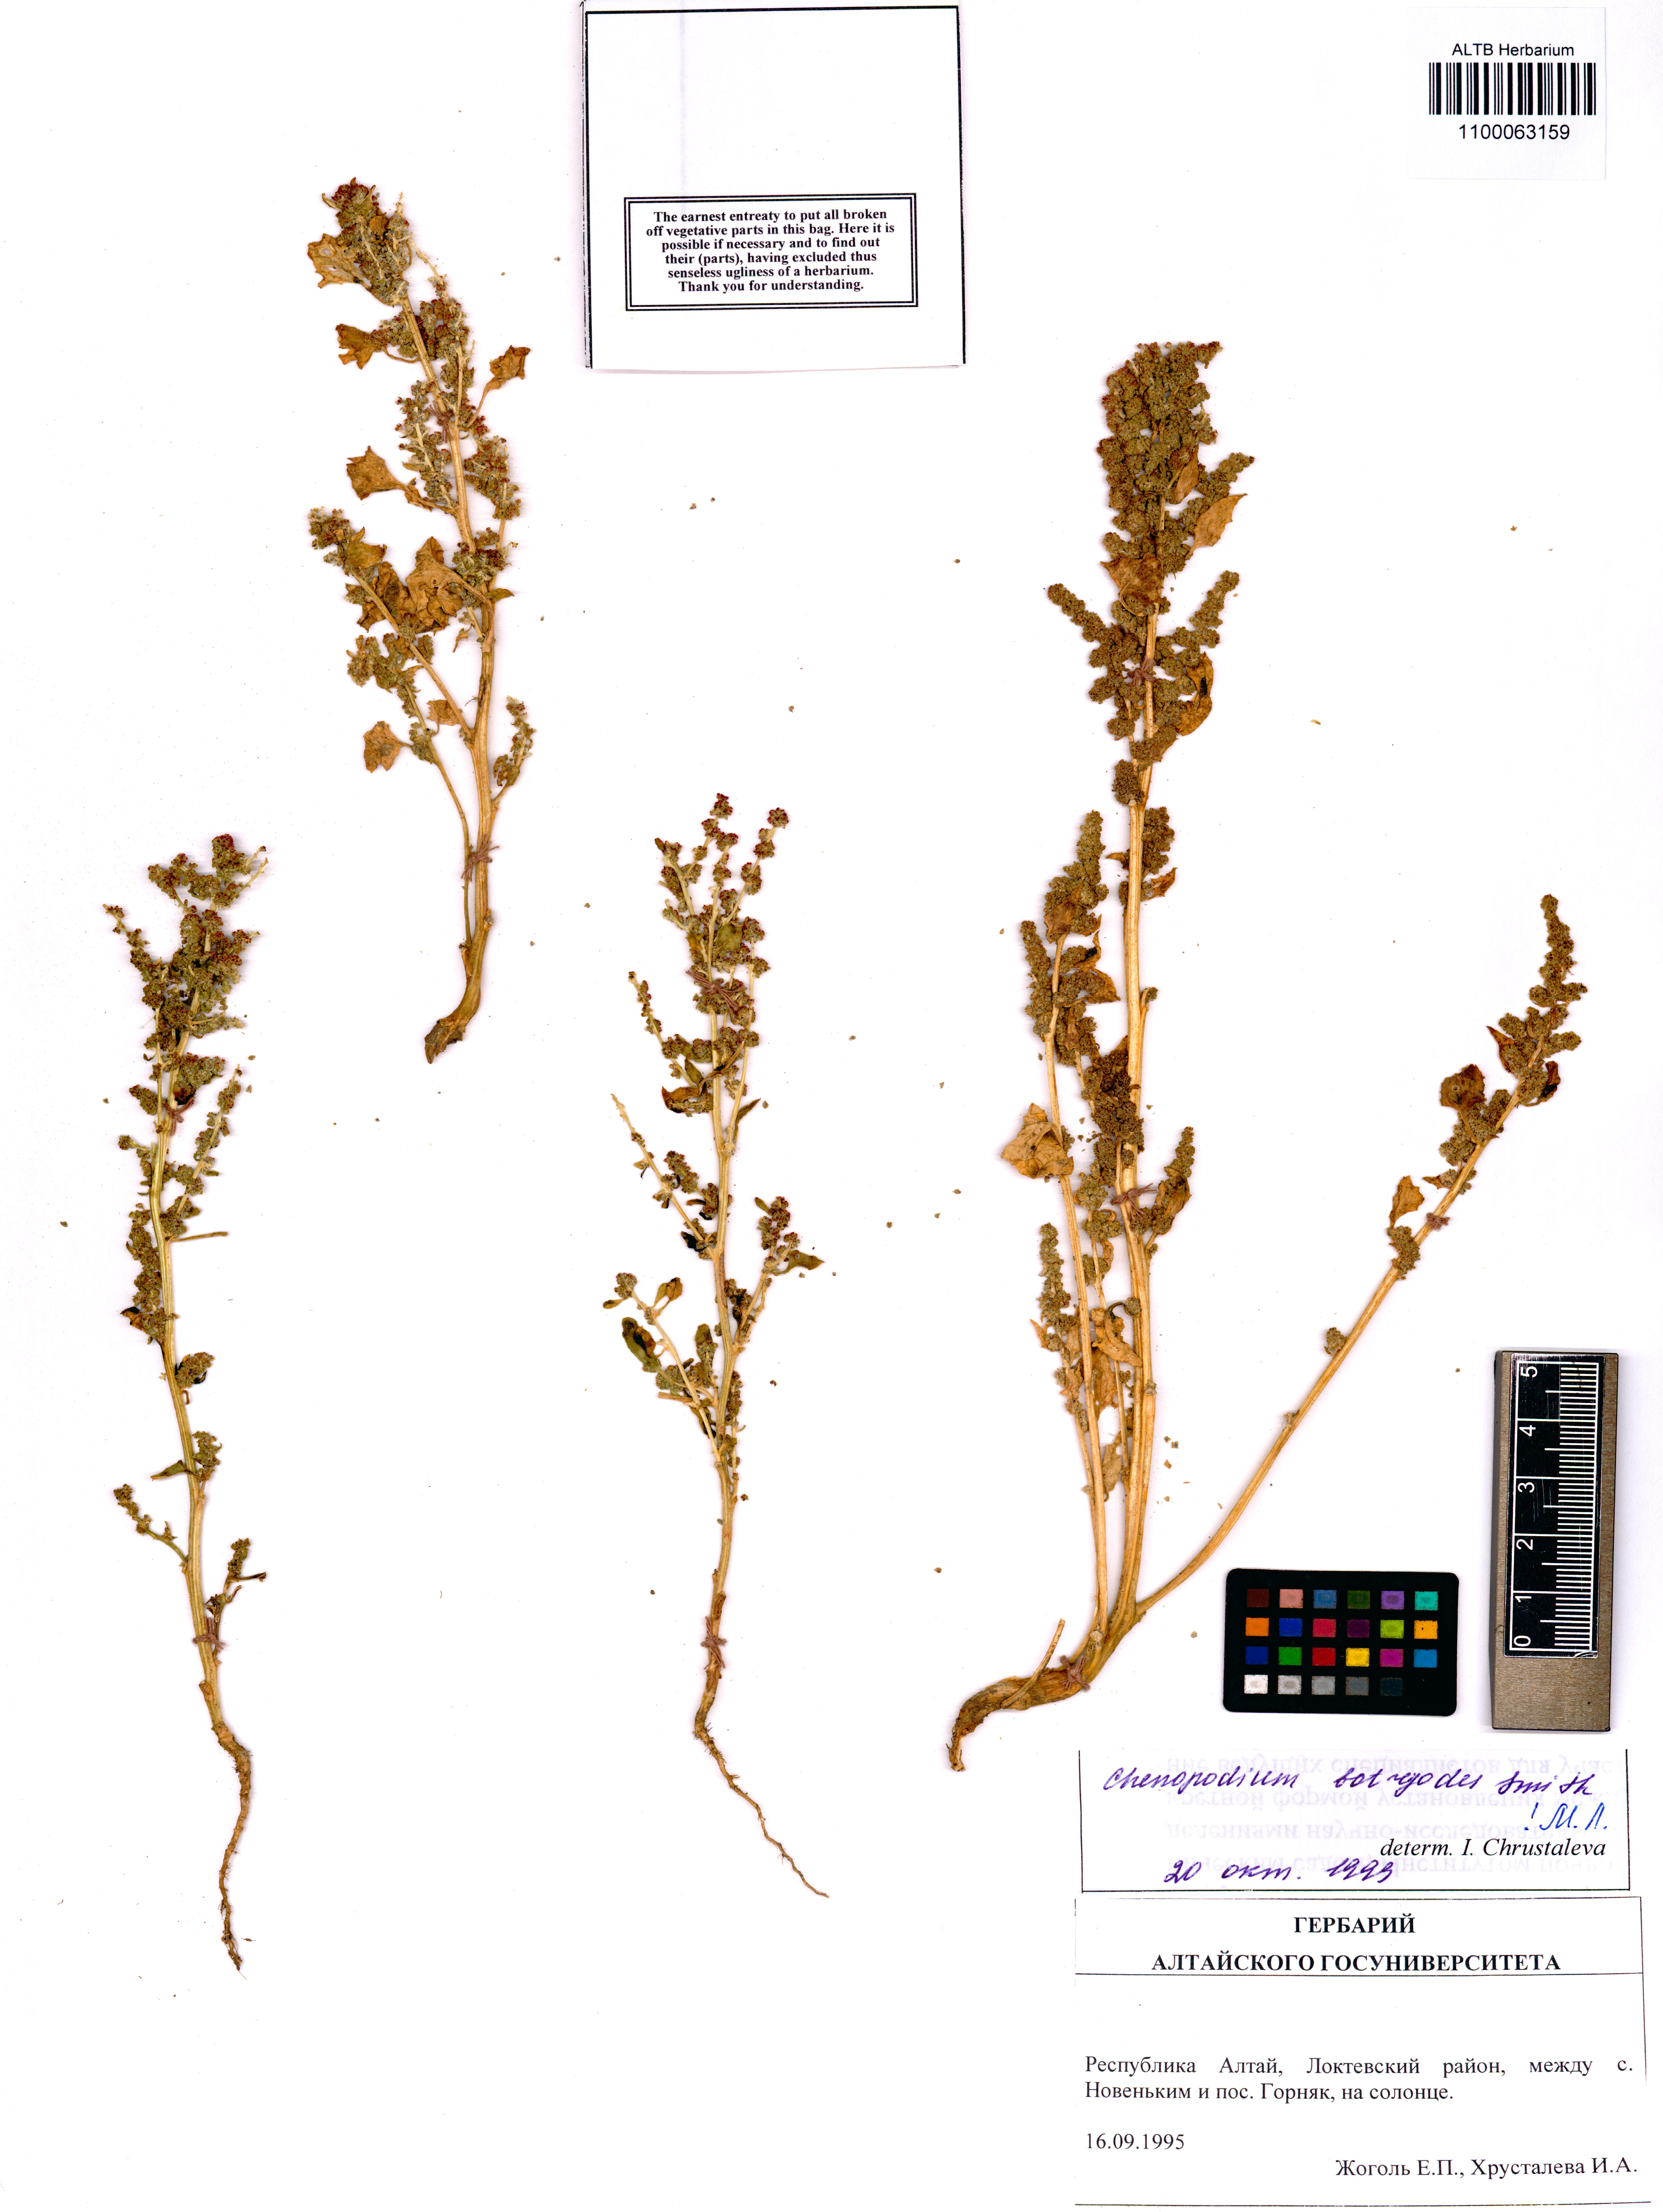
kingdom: Plantae
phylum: Tracheophyta
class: Magnoliopsida
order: Caryophyllales
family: Amaranthaceae
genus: Oxybasis
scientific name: Oxybasis chenopodioides
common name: Saltmarsh goosefoot
